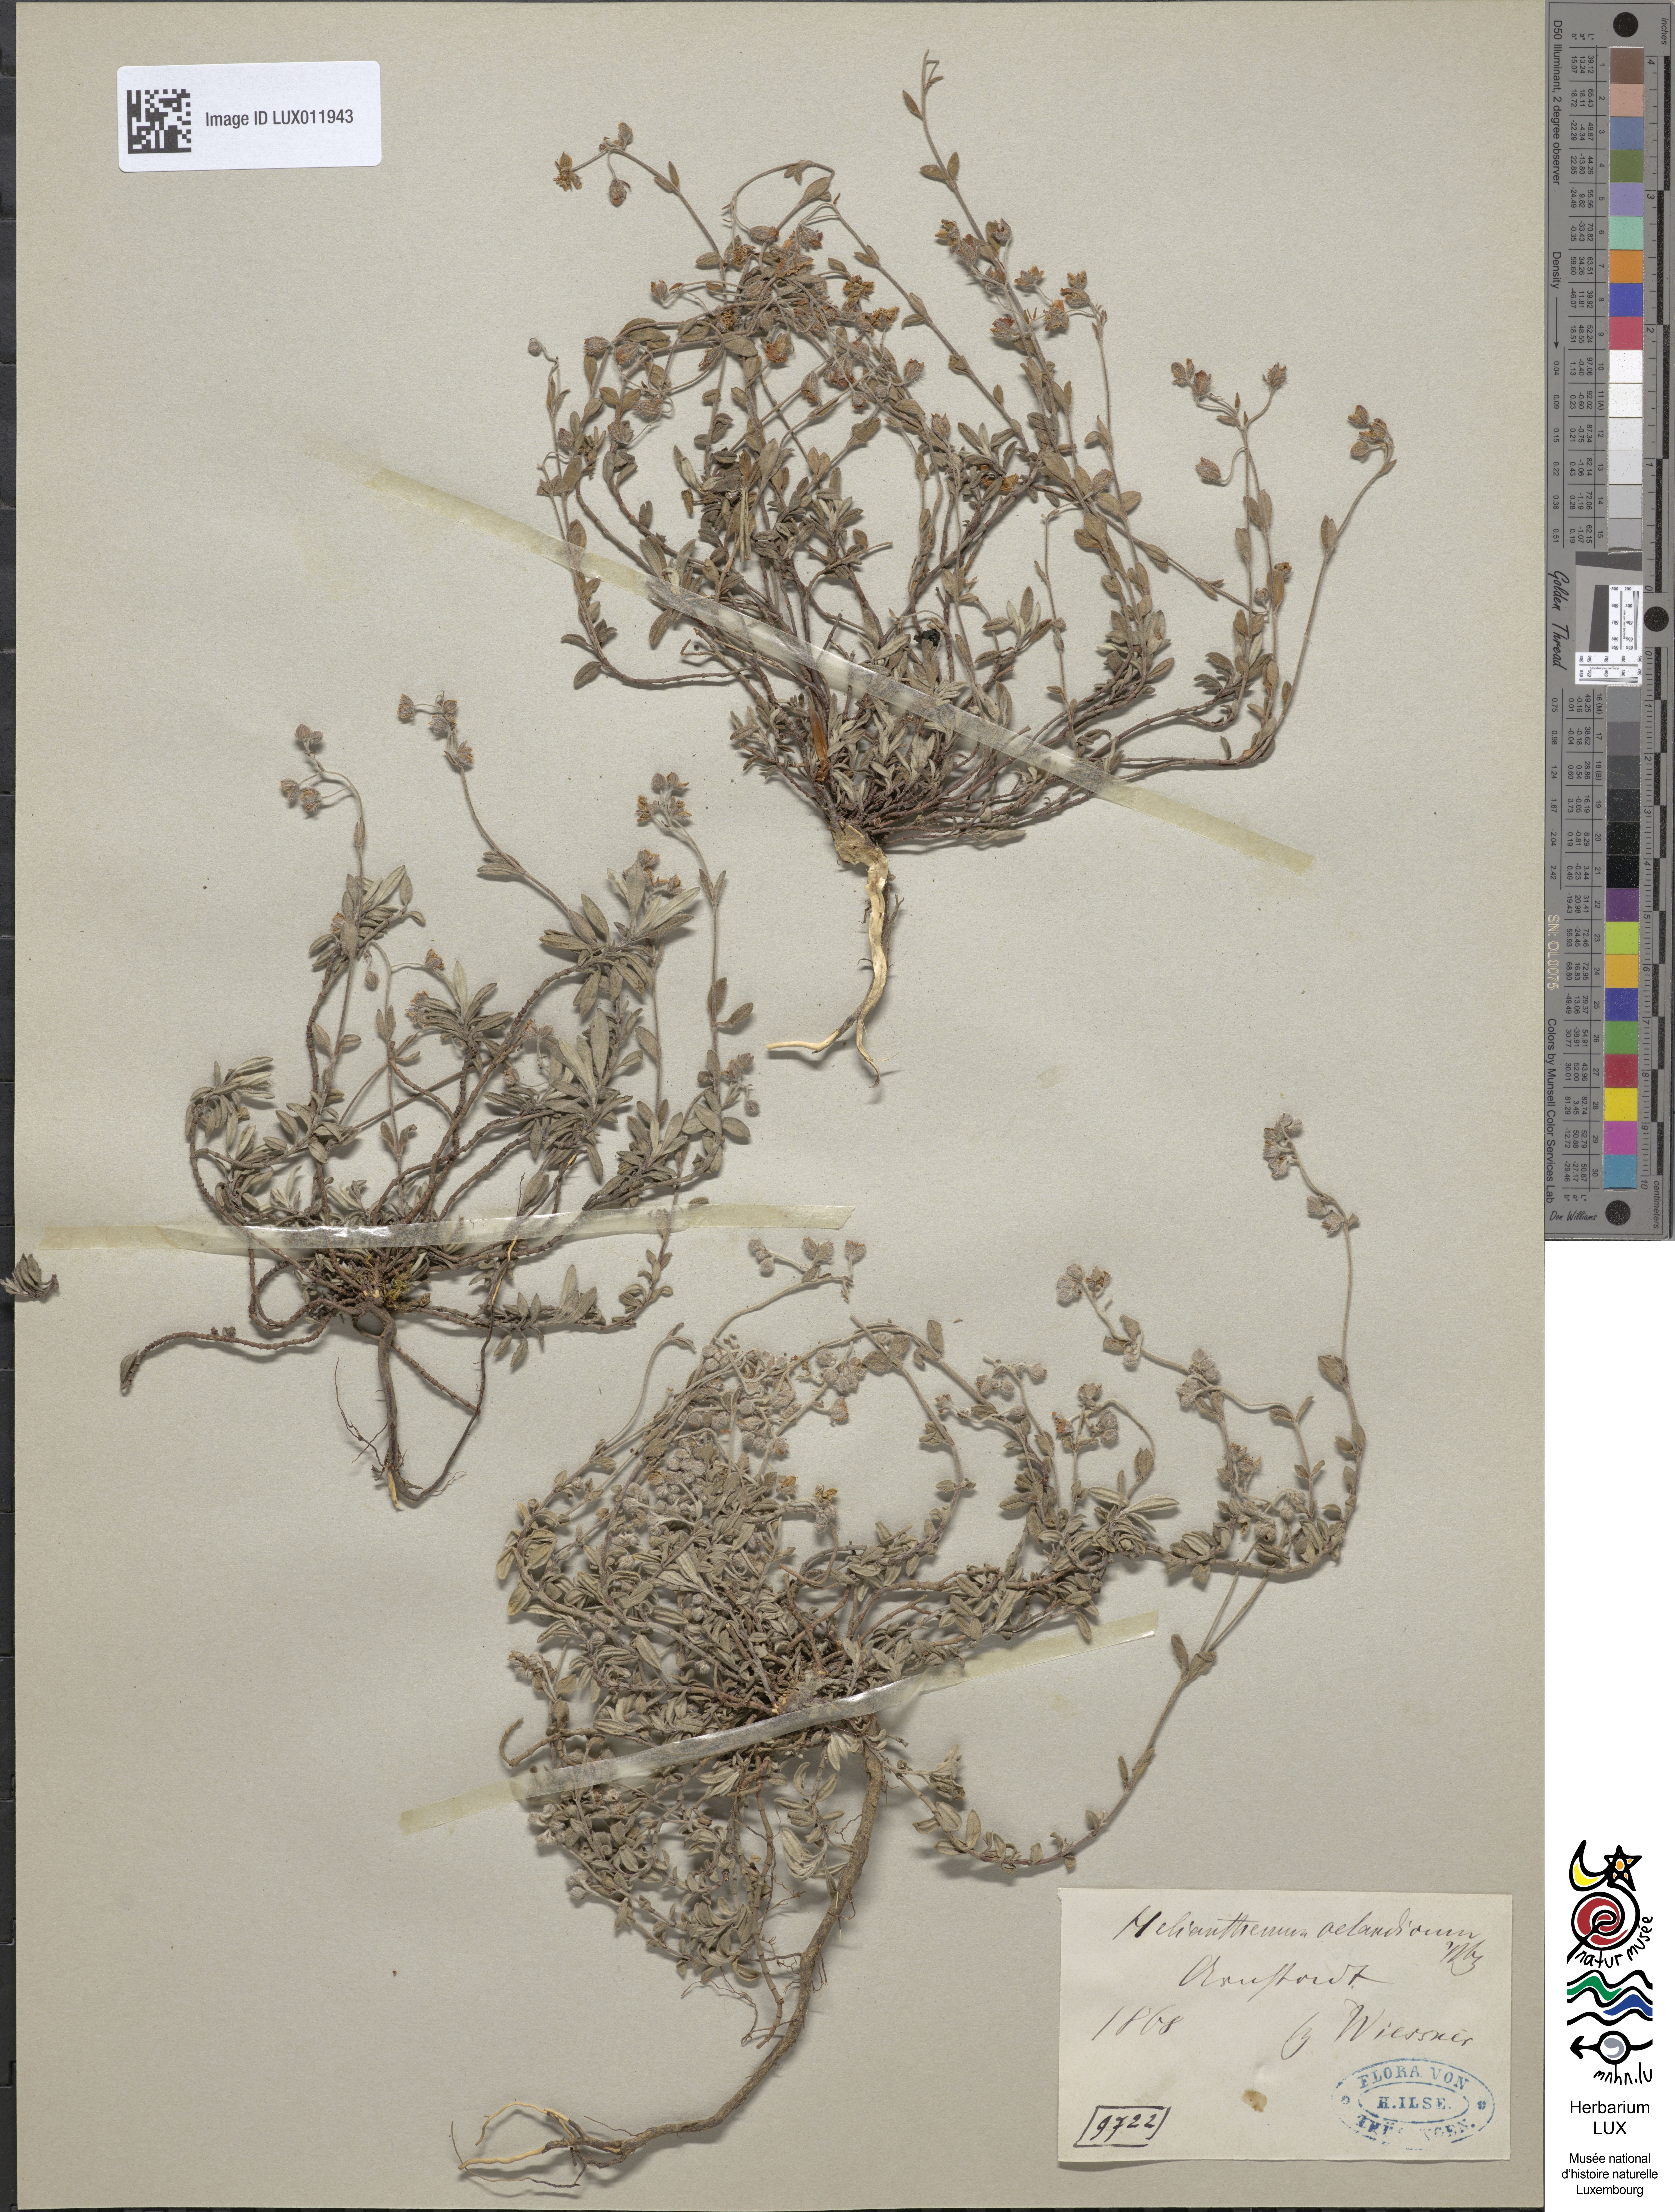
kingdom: Plantae
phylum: Tracheophyta
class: Magnoliopsida
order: Malvales
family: Cistaceae
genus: Helianthemum
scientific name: Helianthemum oelandicum
